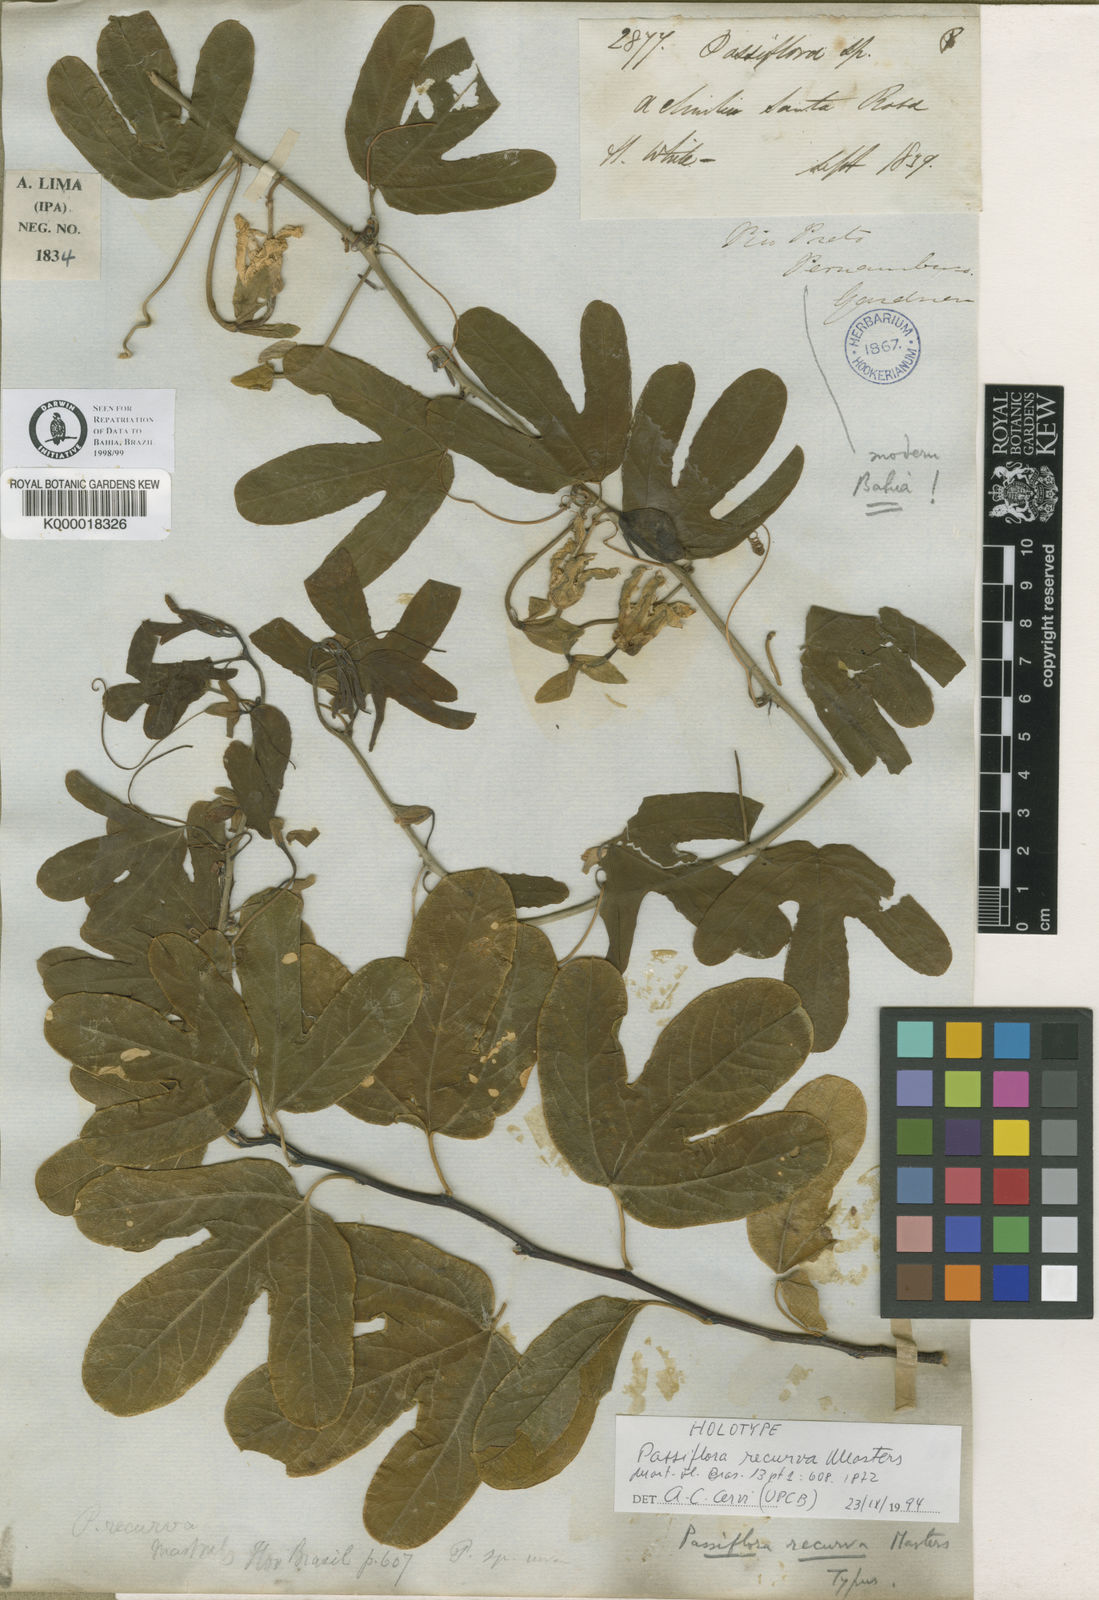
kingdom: Plantae
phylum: Tracheophyta
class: Magnoliopsida
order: Malpighiales
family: Passifloraceae
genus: Passiflora
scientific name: Passiflora recurva
